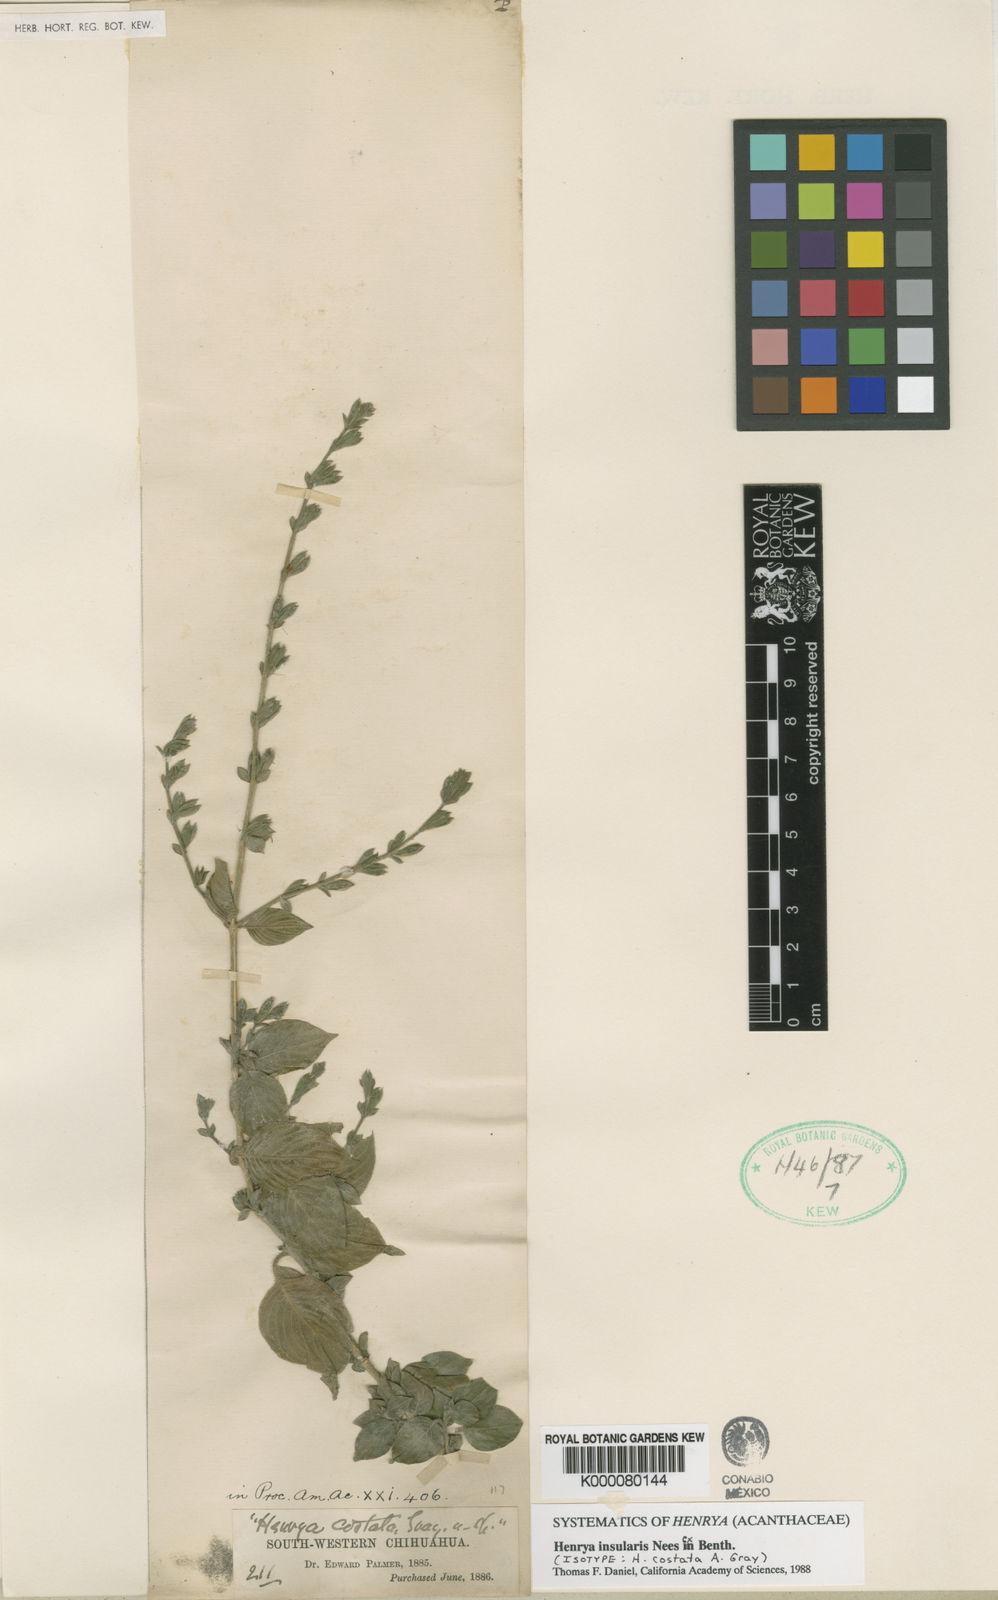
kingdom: Plantae
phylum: Tracheophyta
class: Magnoliopsida
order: Lamiales
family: Acanthaceae
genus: Henrya
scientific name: Henrya
